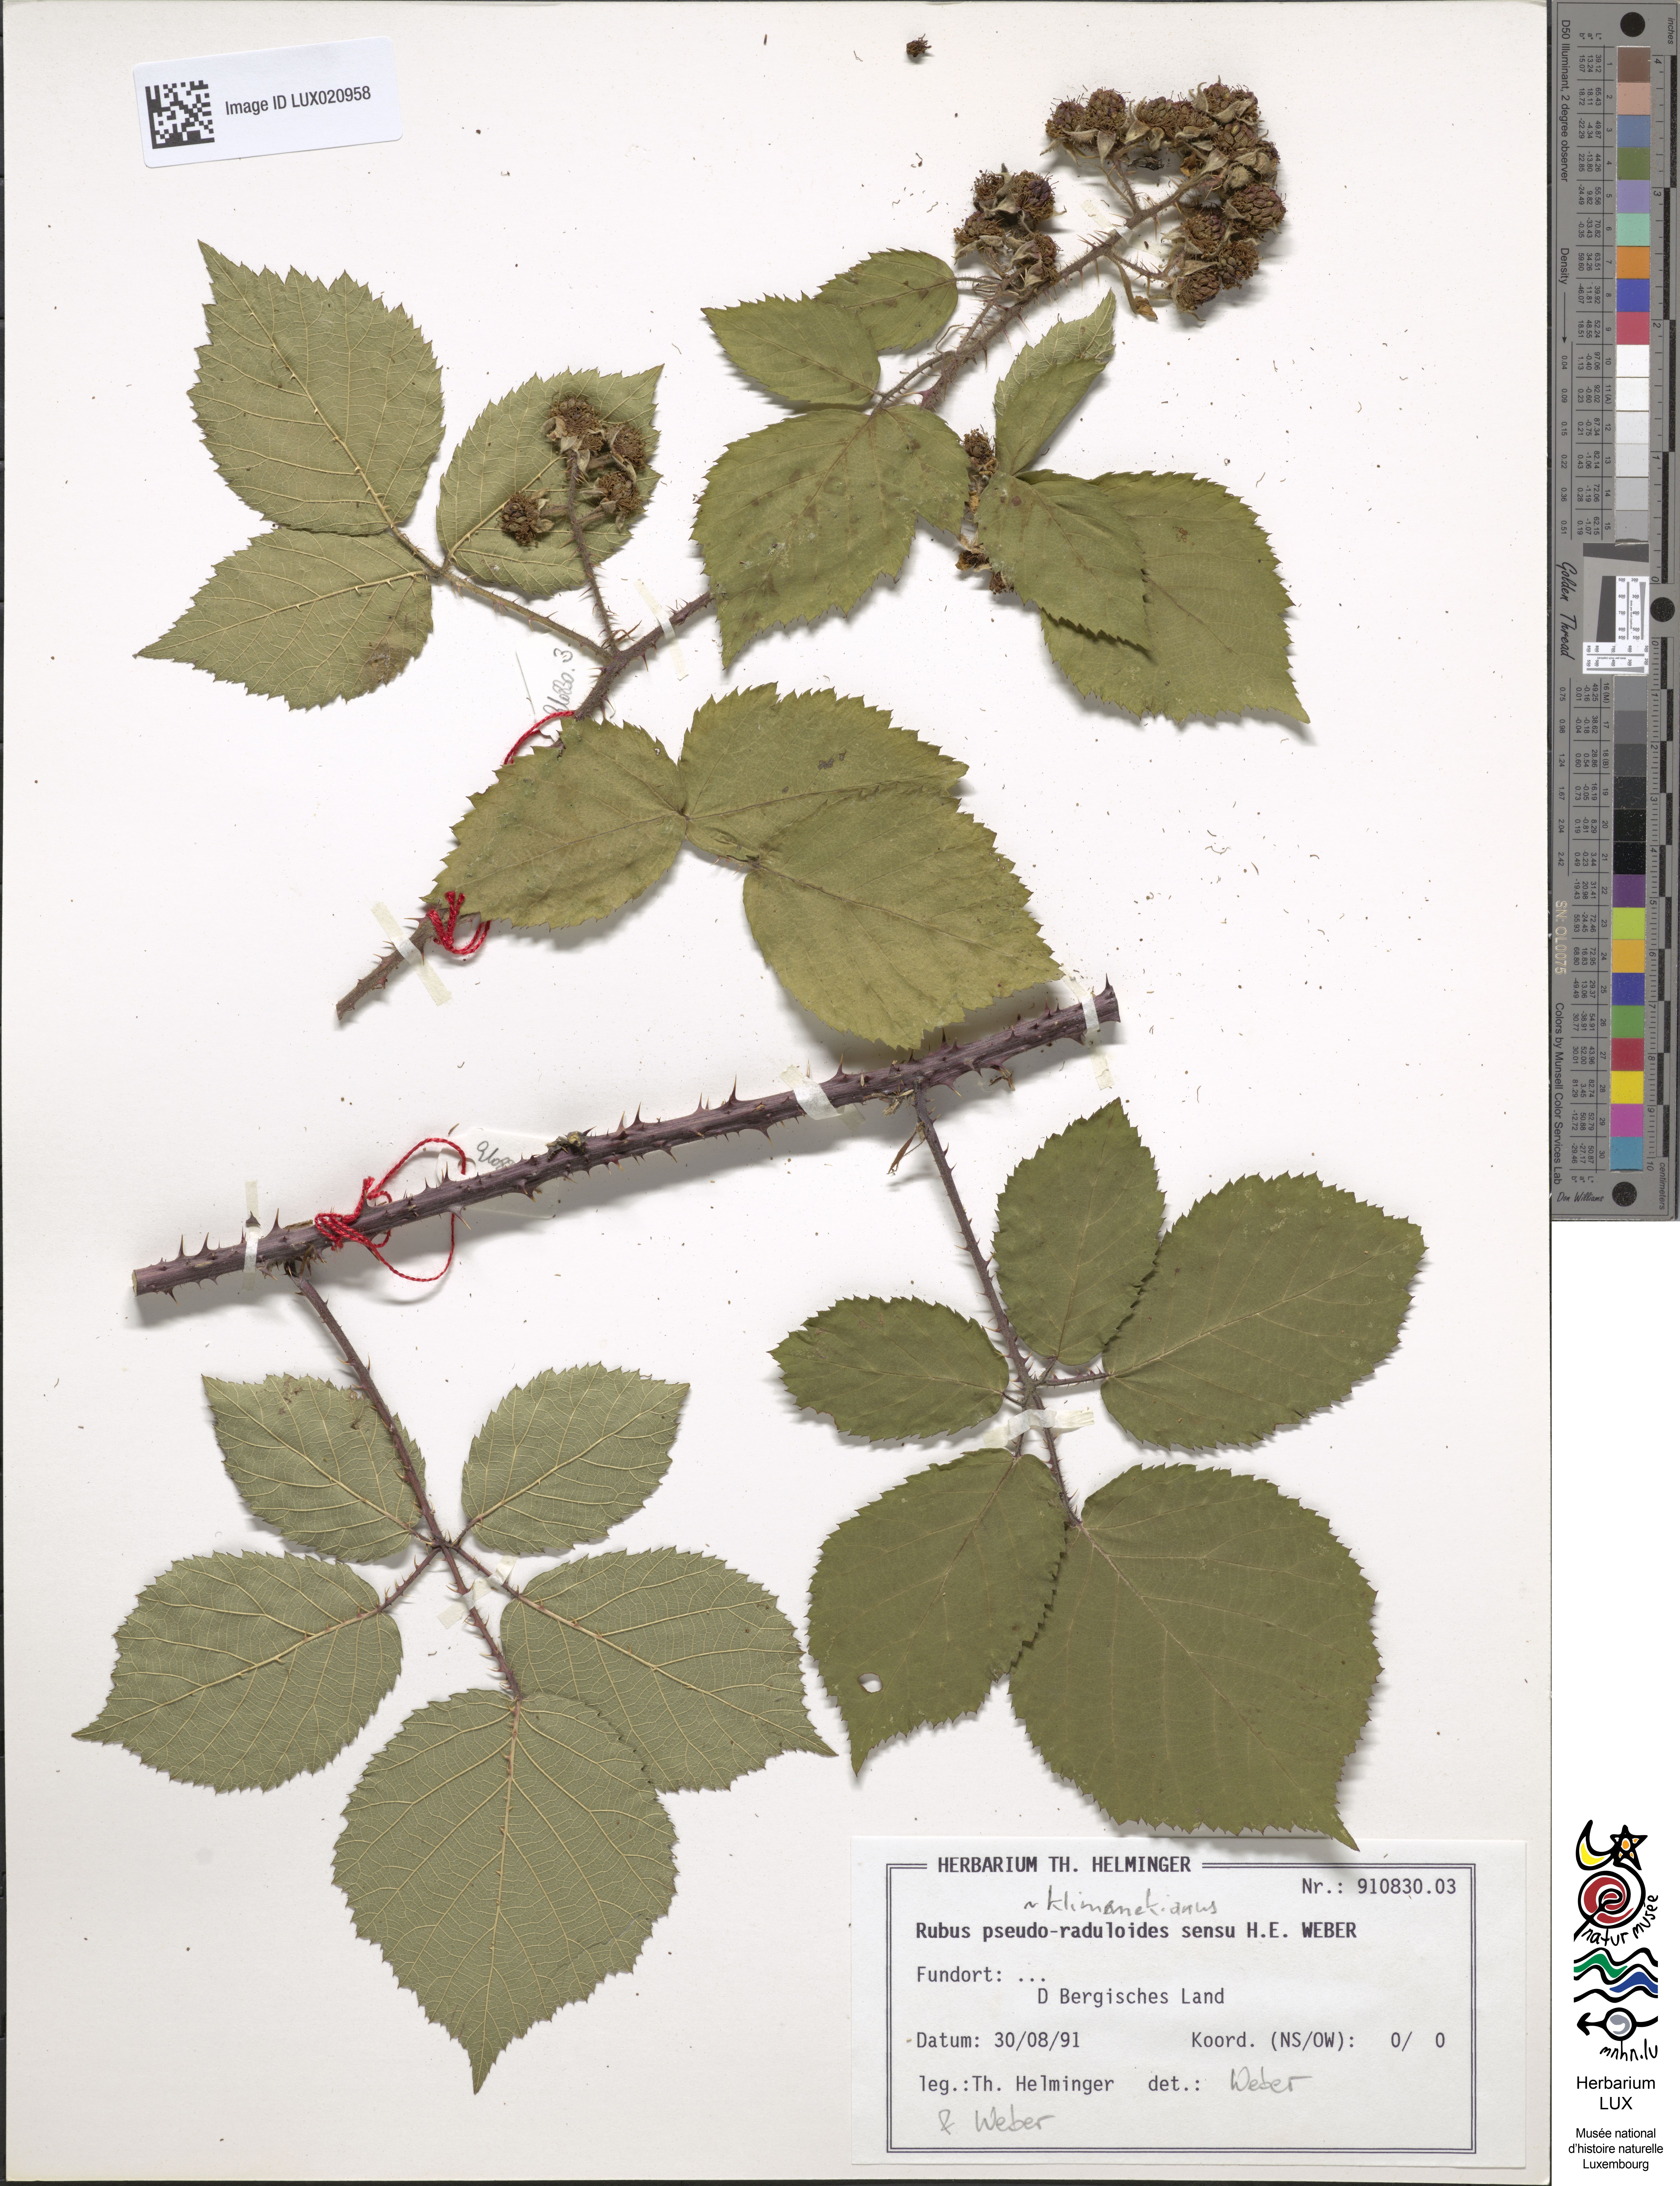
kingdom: Plantae
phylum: Tracheophyta
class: Magnoliopsida
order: Rosales
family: Rosaceae
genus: Rubus
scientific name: Rubus klimmekianus
